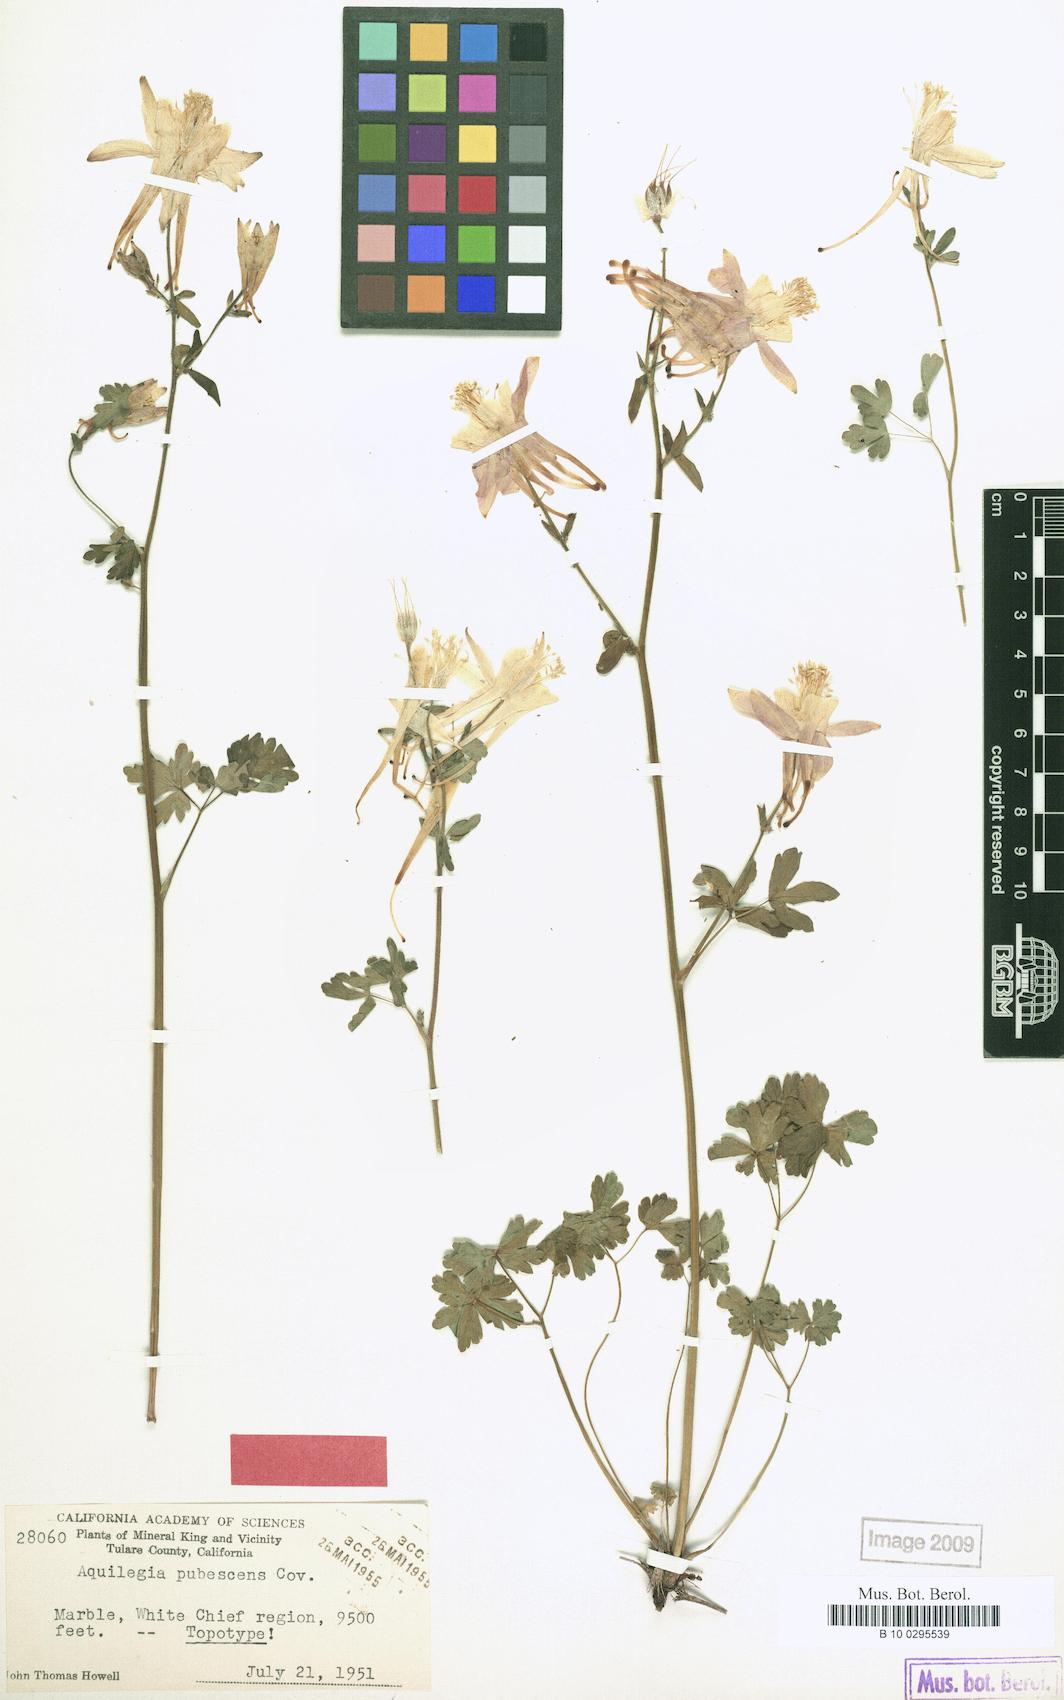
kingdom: Plantae
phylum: Tracheophyta
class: Magnoliopsida
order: Ranunculales
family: Ranunculaceae
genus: Aquilegia
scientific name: Aquilegia pubescens
